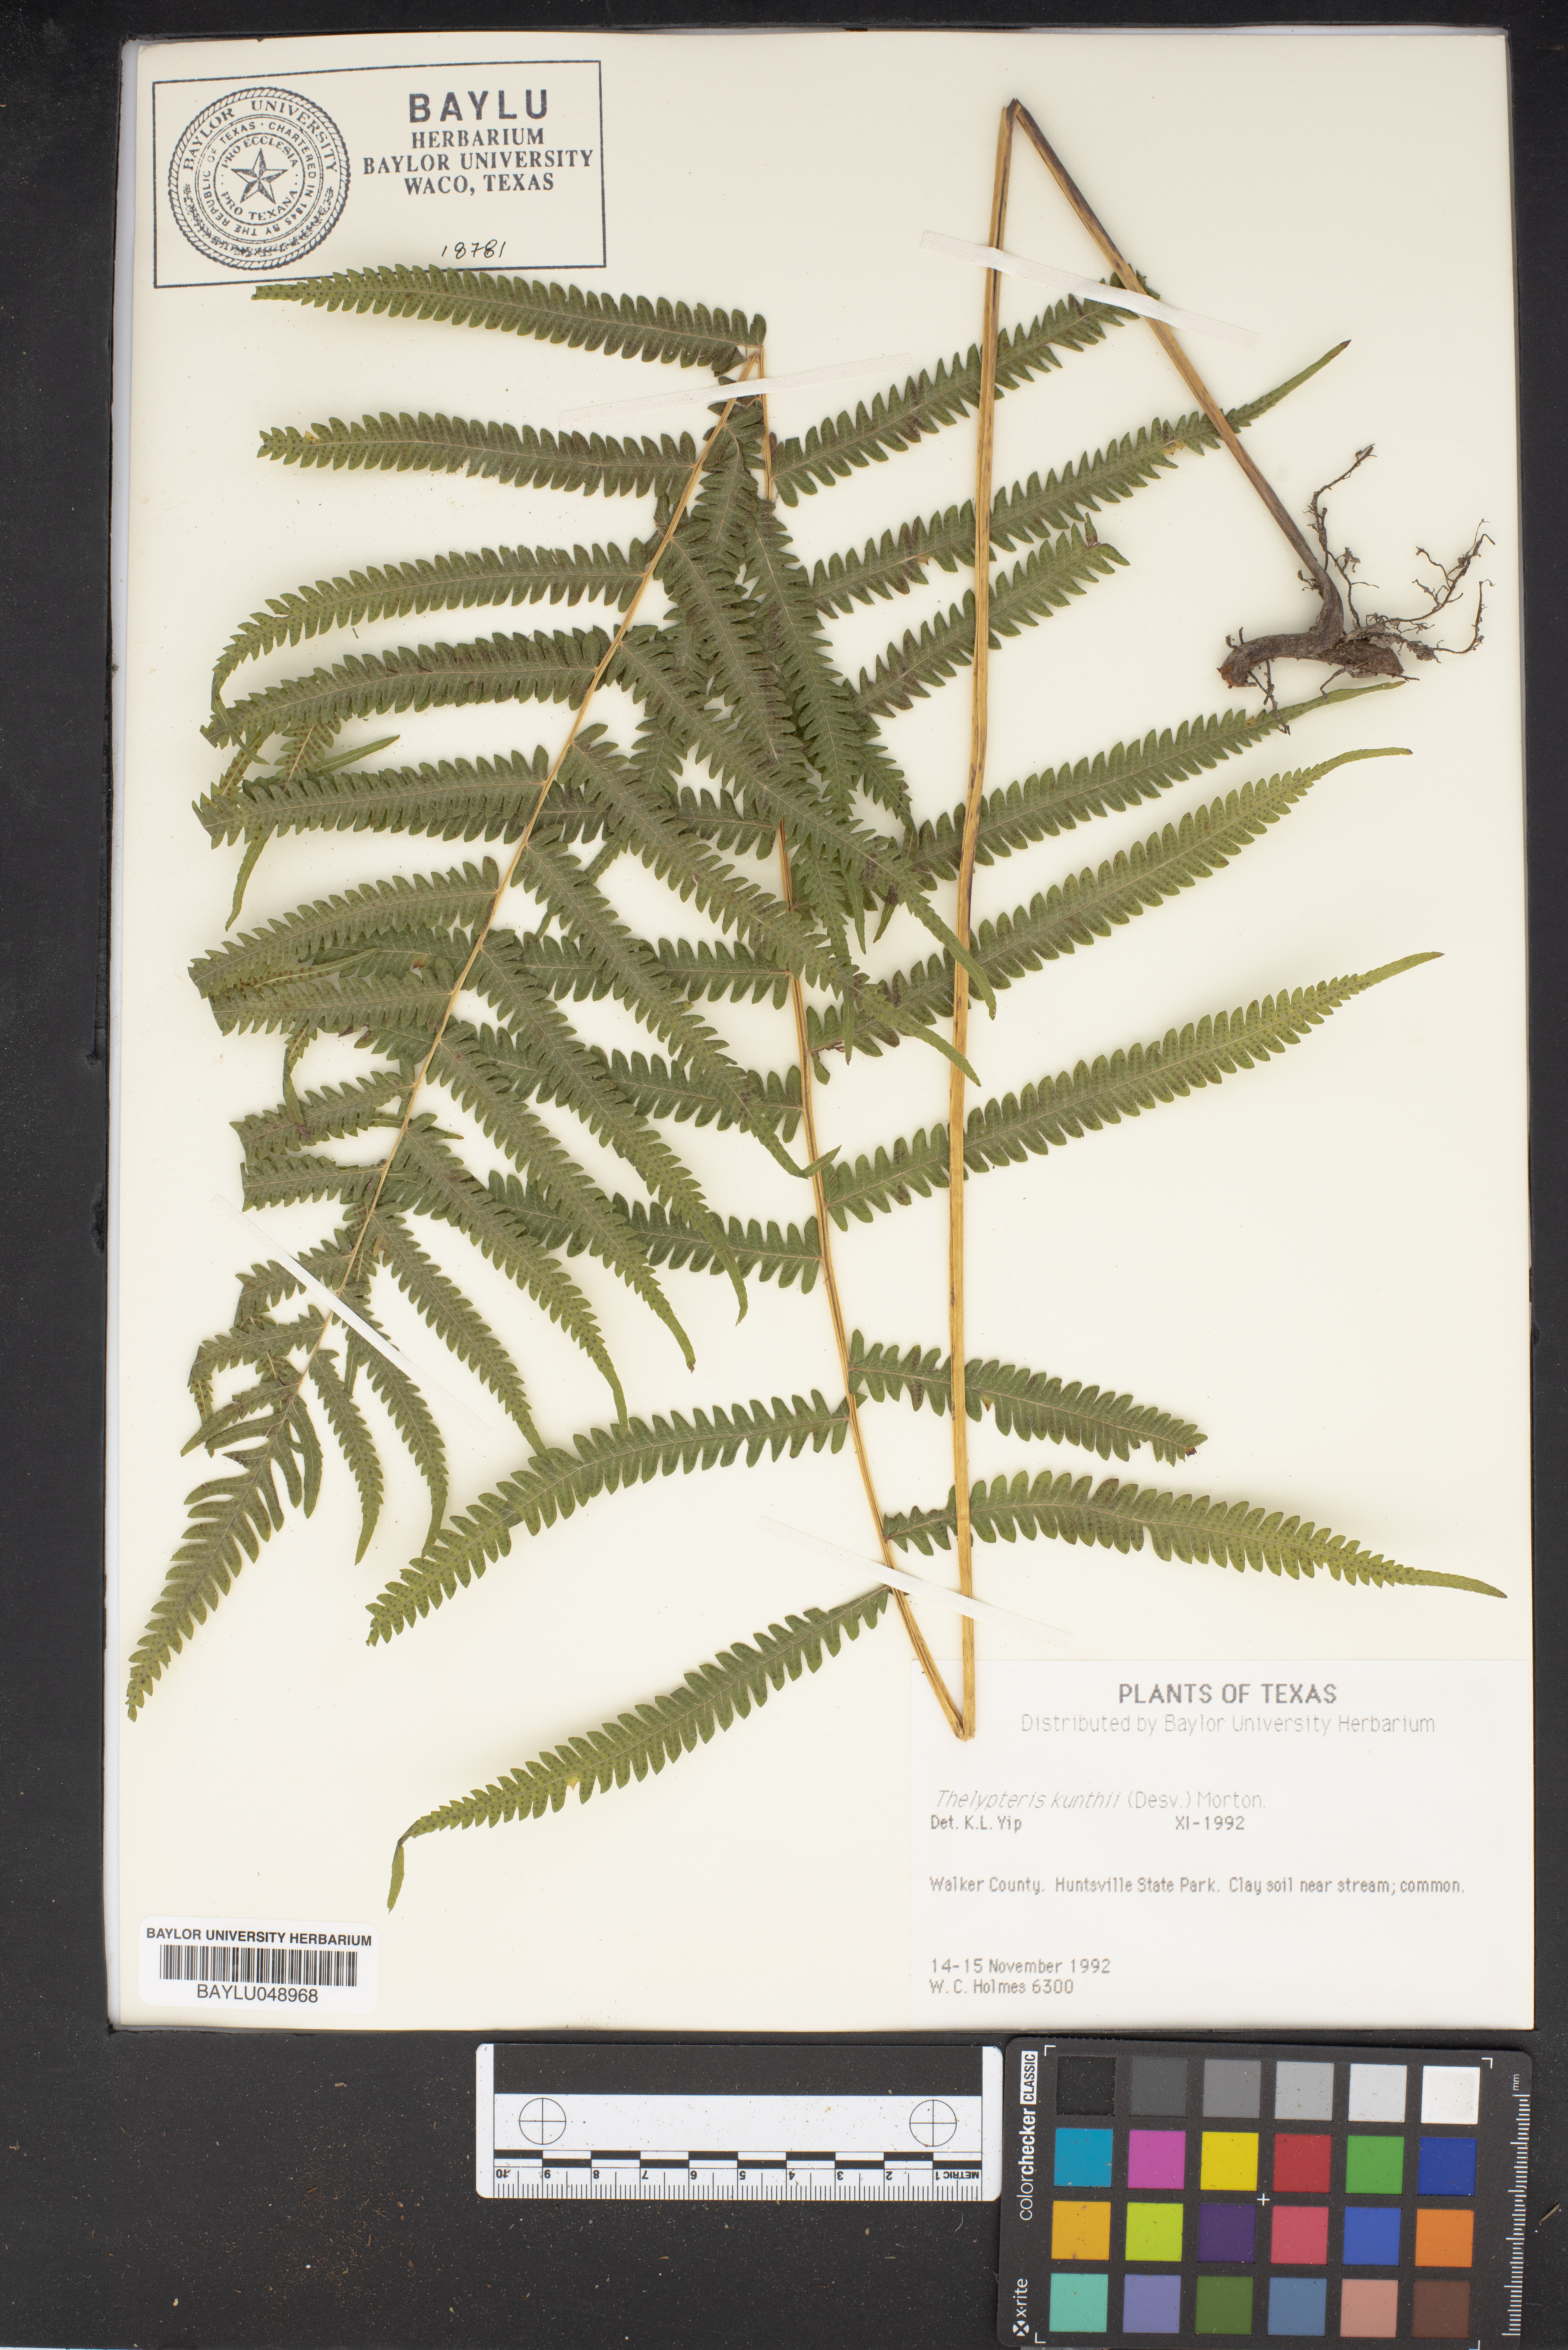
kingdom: Plantae
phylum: Tracheophyta
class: Polypodiopsida
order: Polypodiales
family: Thelypteridaceae
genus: Pelazoneuron
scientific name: Pelazoneuron kunthii
